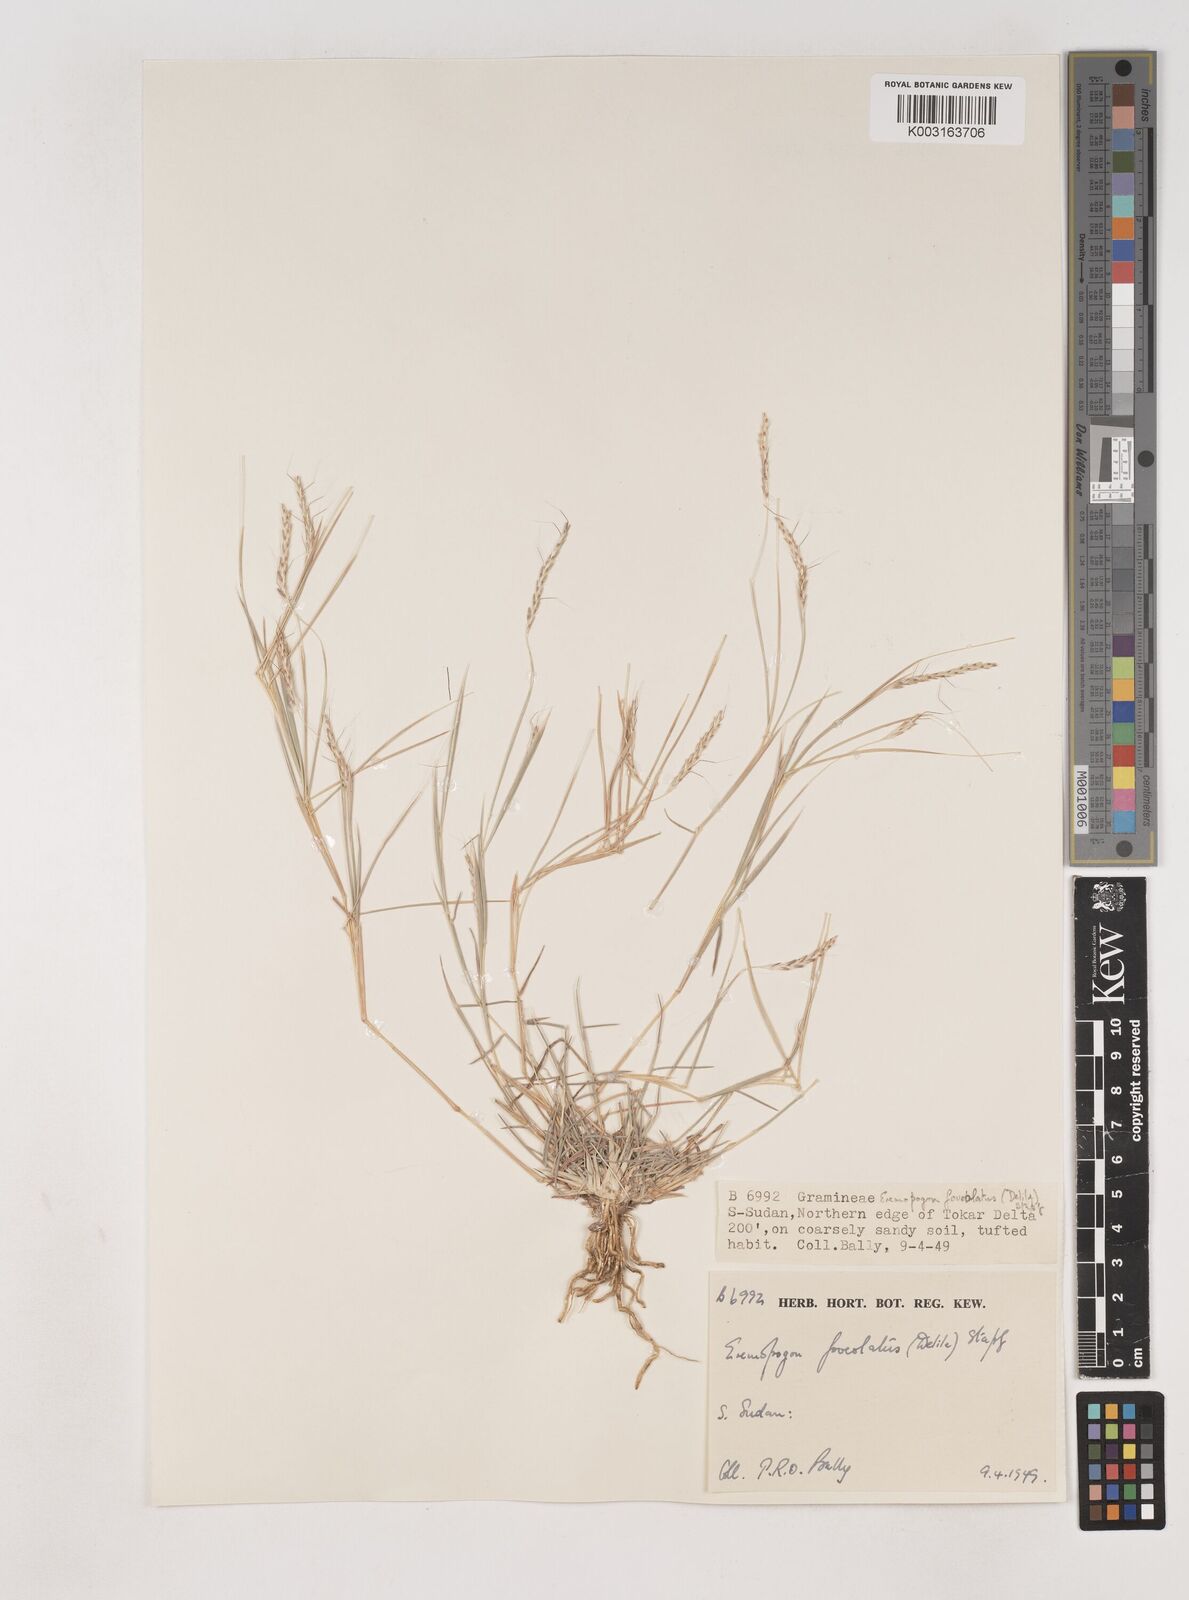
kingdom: Plantae
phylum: Tracheophyta
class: Liliopsida
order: Poales
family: Poaceae
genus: Dichanthium
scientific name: Dichanthium foveolatum
